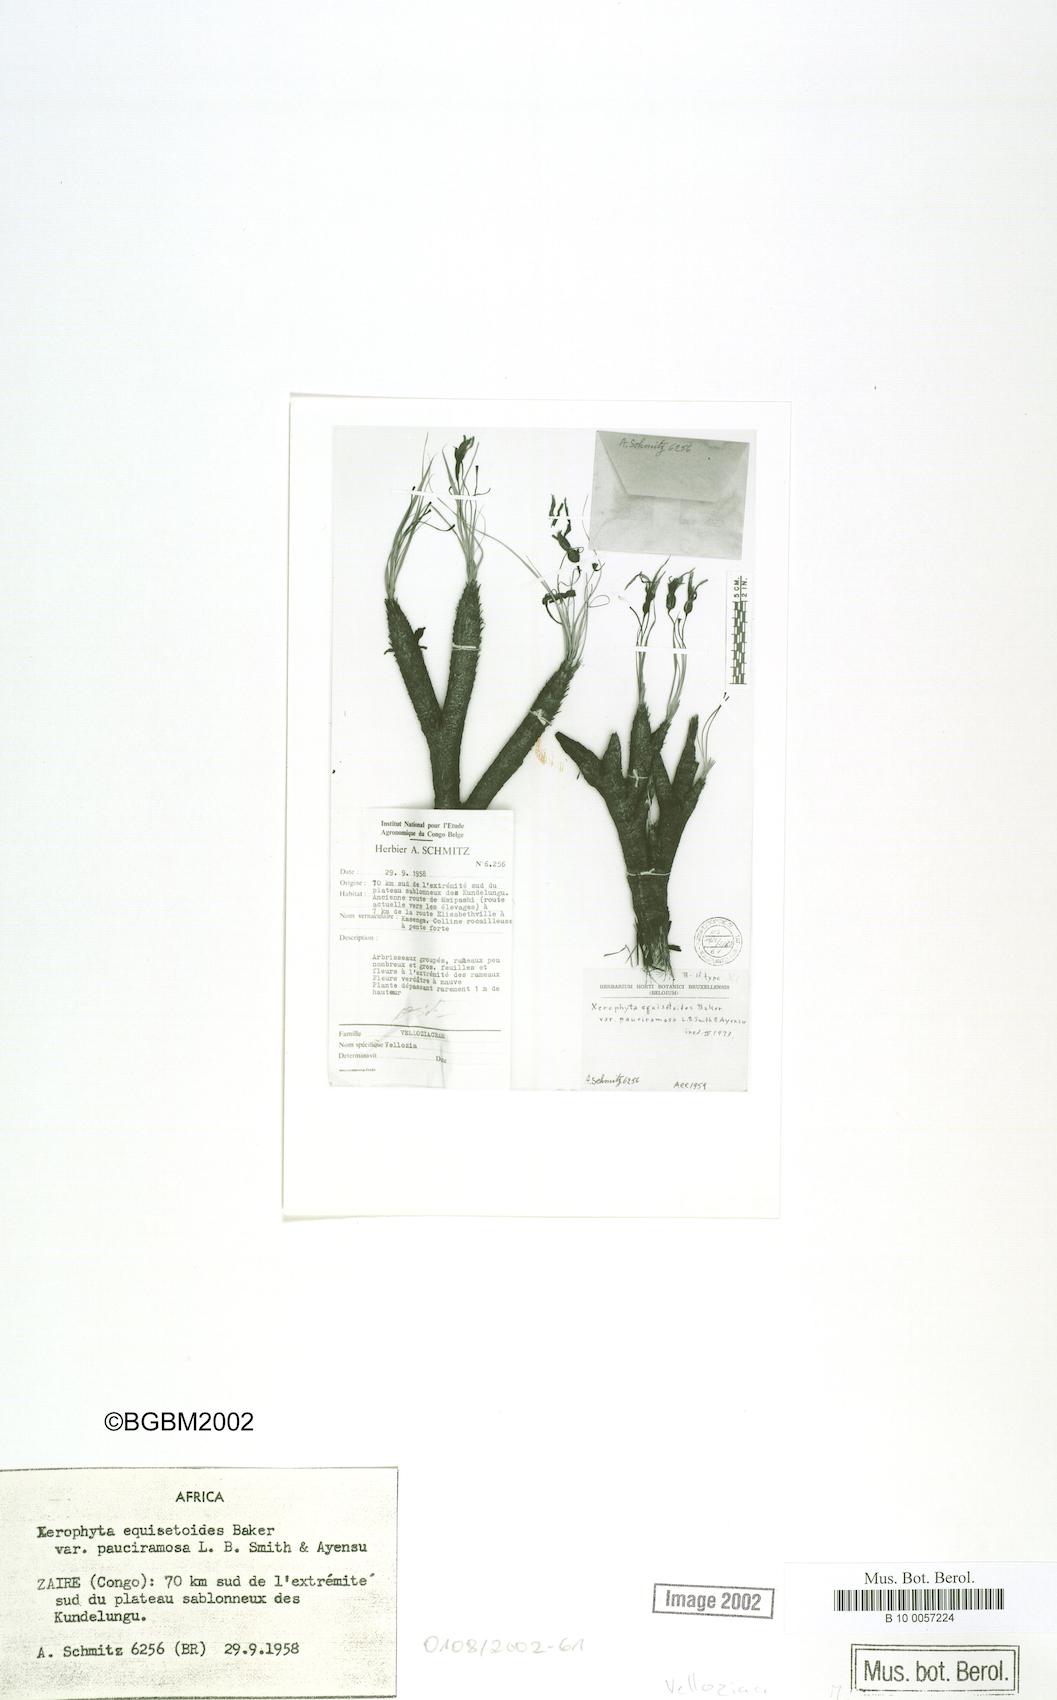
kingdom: Plantae
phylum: Tracheophyta
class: Liliopsida
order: Pandanales
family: Velloziaceae
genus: Xerophyta
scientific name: Xerophyta pauciramosa
